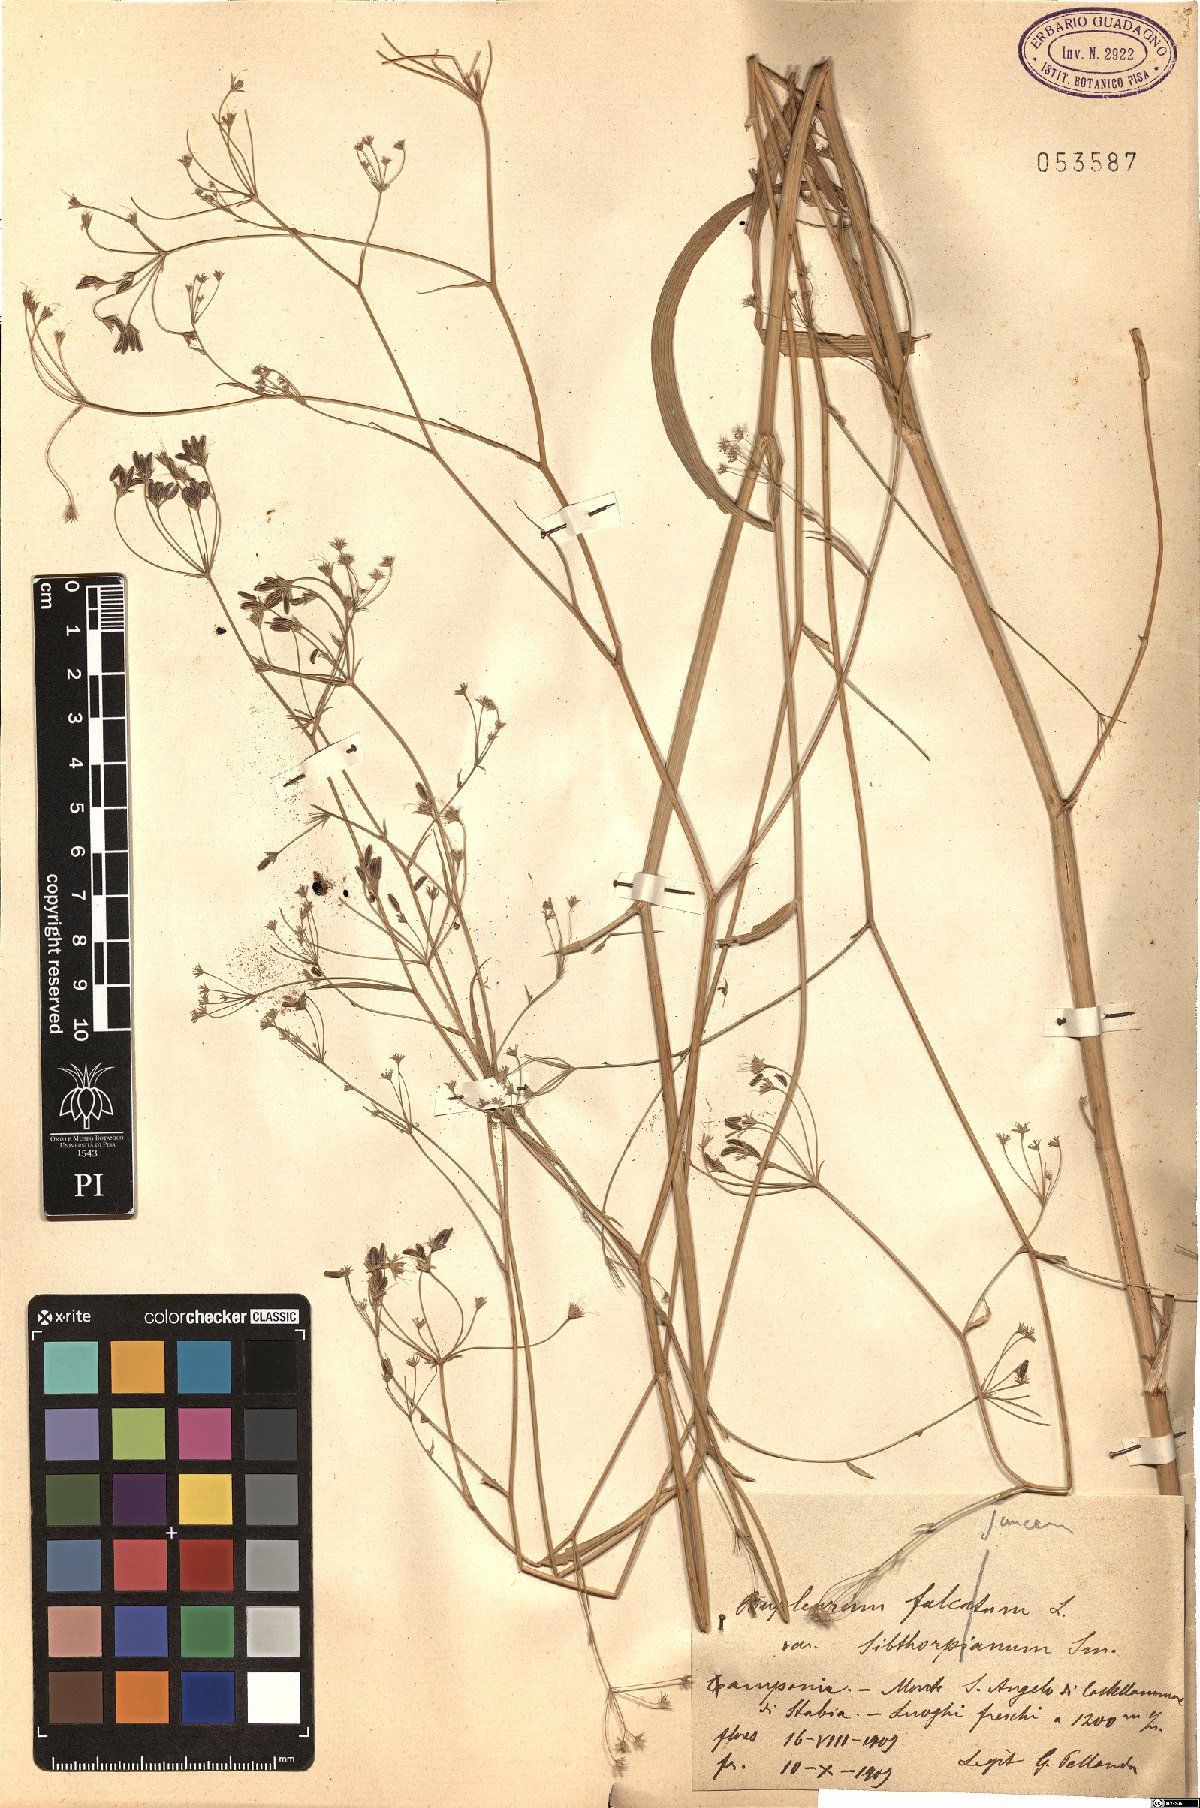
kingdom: Plantae
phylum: Tracheophyta
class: Magnoliopsida
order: Apiales
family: Apiaceae
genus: Bupleurum
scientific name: Bupleurum falcatum
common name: Sickle-leaved hare's-ear
